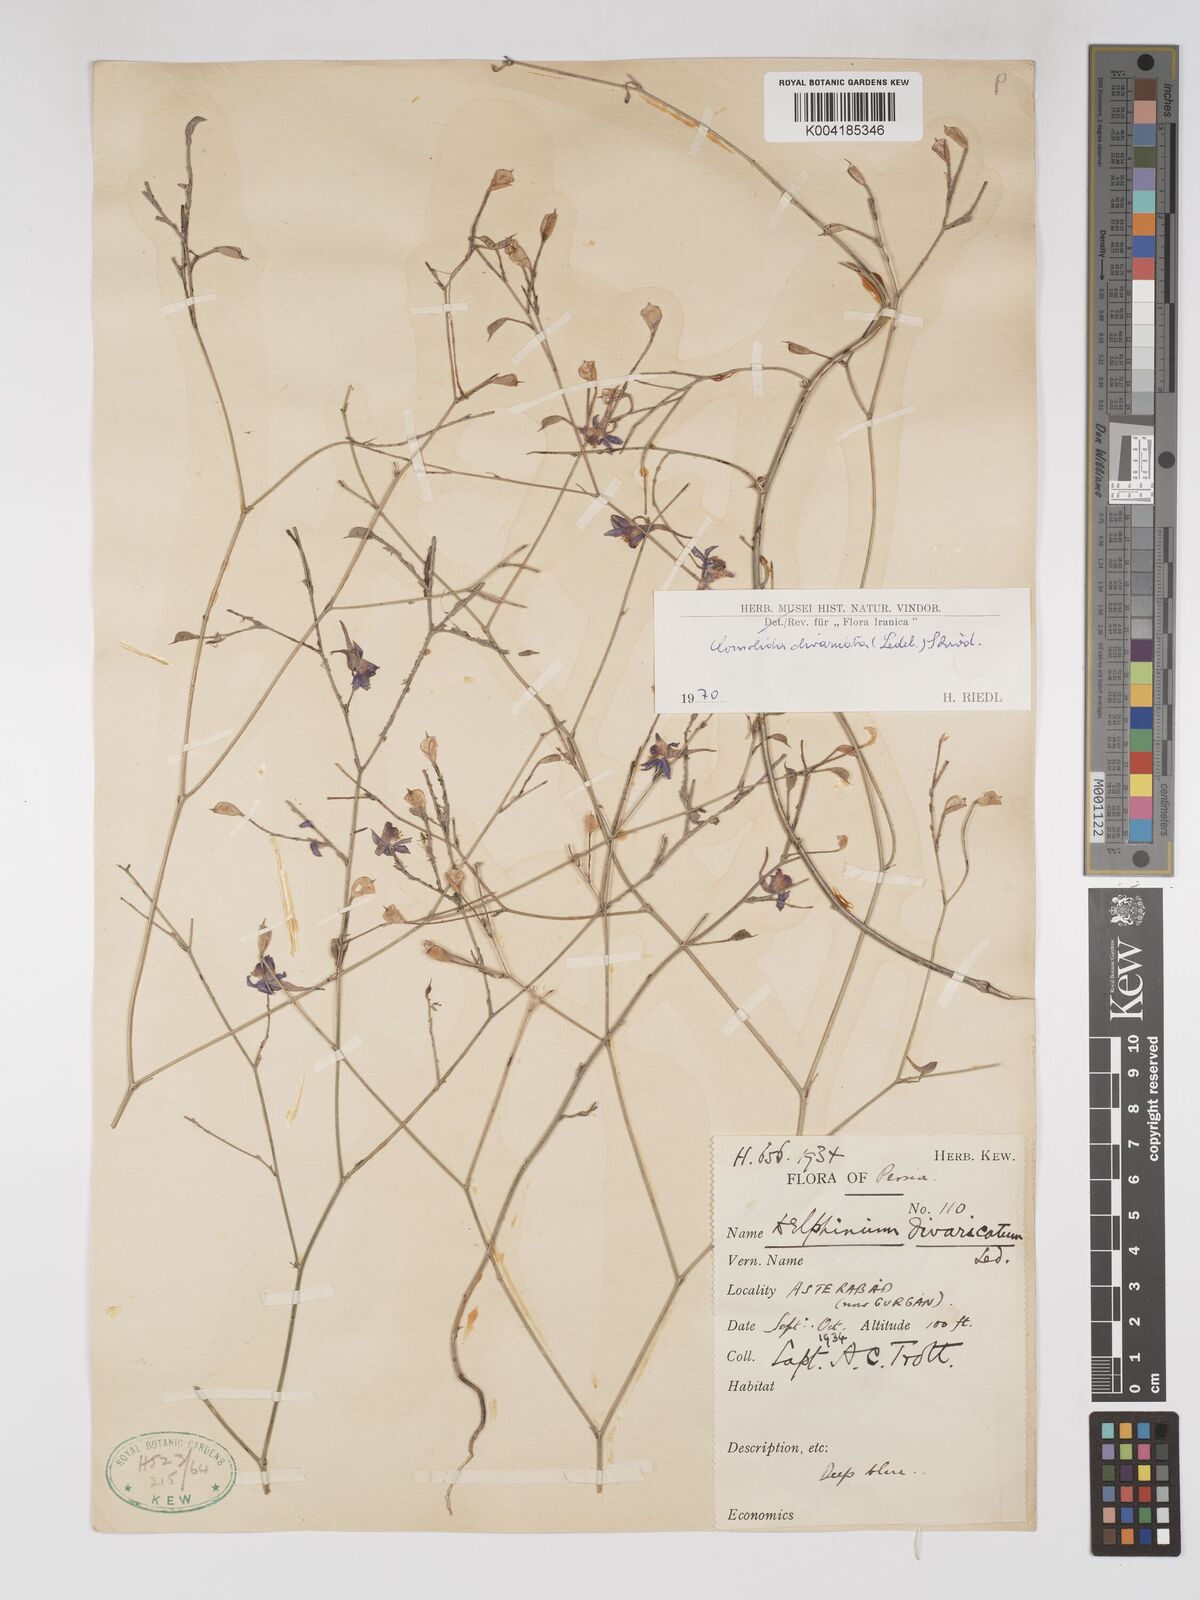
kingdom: Plantae
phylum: Tracheophyta
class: Magnoliopsida
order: Ranunculales
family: Ranunculaceae
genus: Delphinium
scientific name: Delphinium oliverianum
